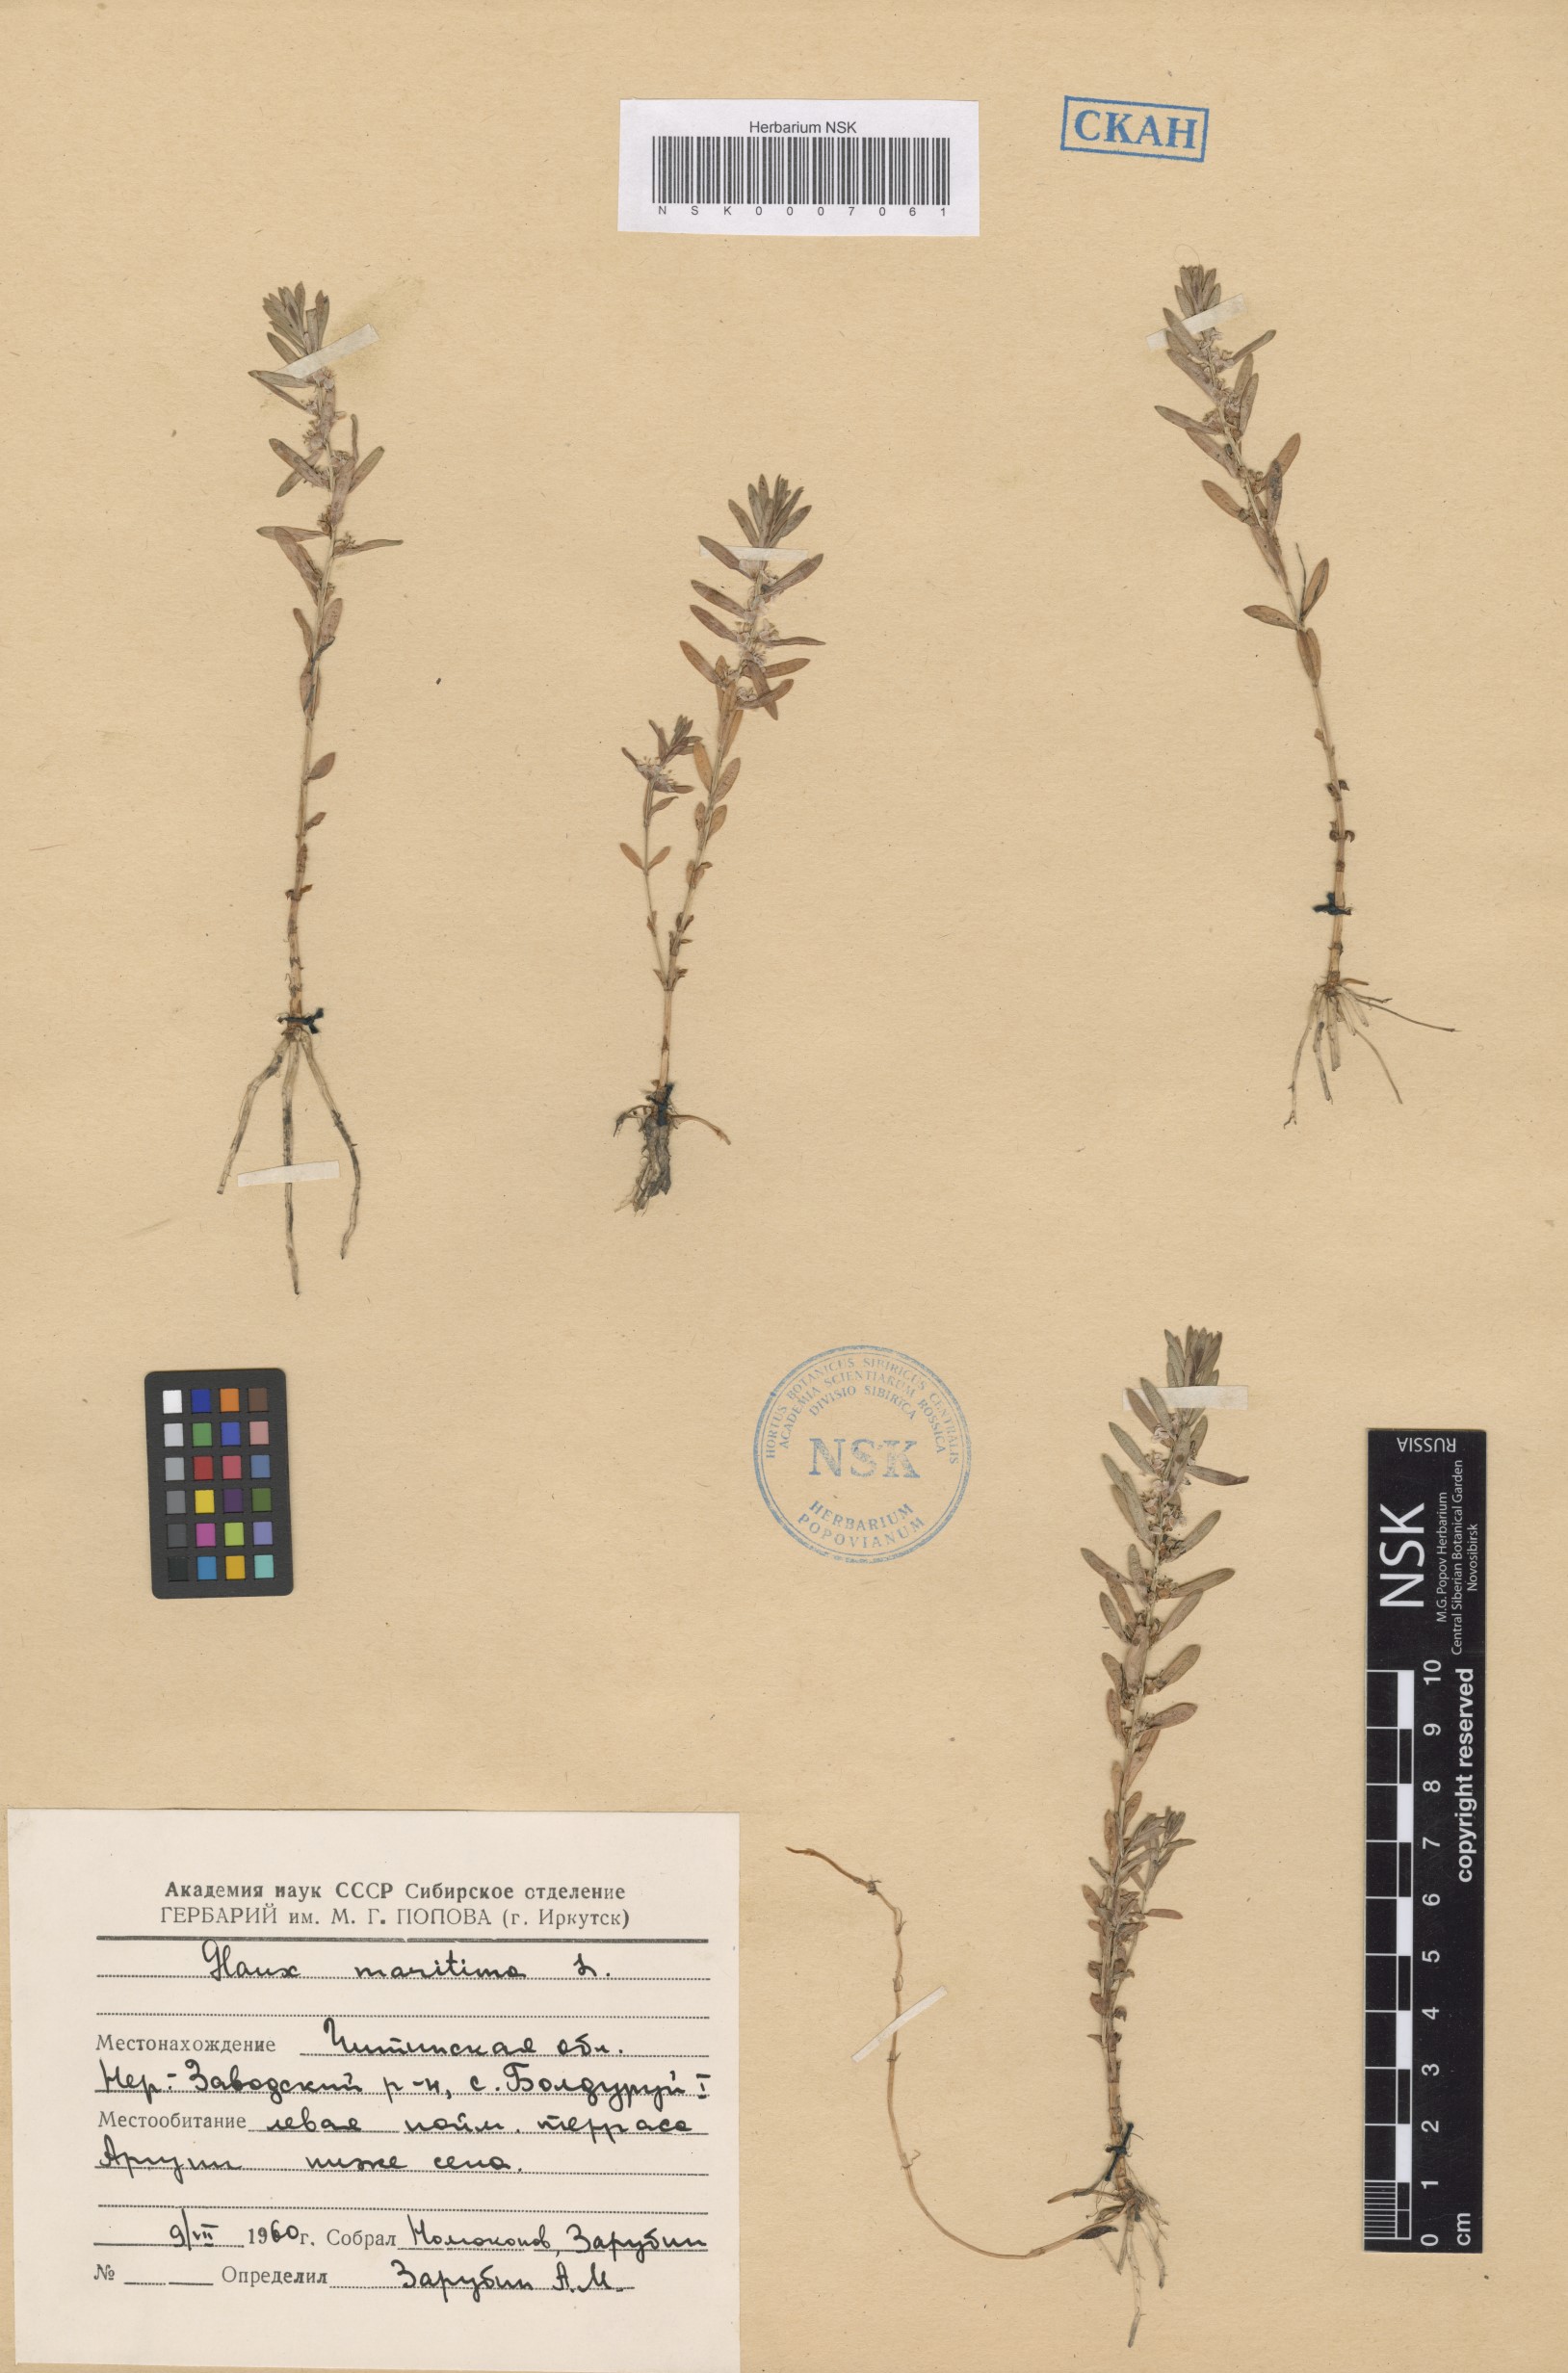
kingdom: Plantae
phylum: Tracheophyta
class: Magnoliopsida
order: Ericales
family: Primulaceae
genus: Lysimachia
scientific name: Lysimachia maritima
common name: Sea milkwort
